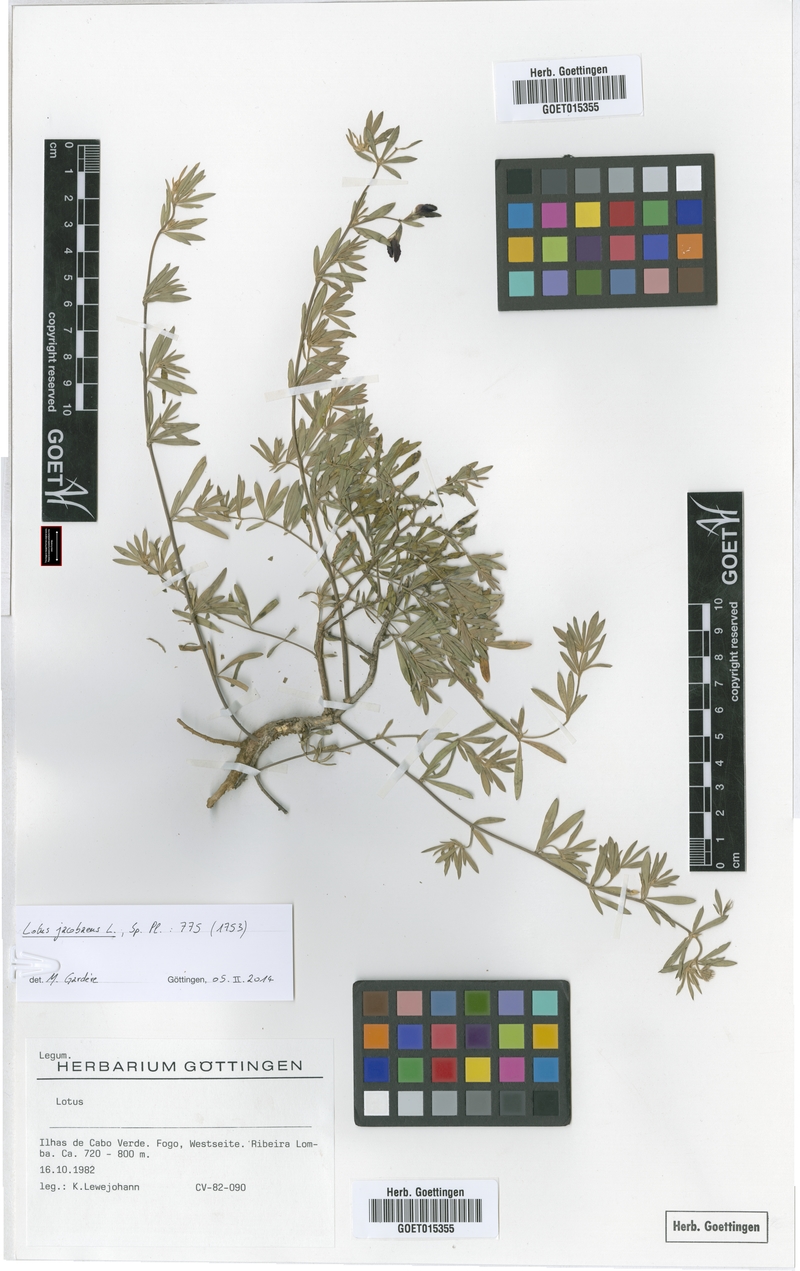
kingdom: Plantae
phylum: Tracheophyta
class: Magnoliopsida
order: Fabales
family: Fabaceae
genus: Lotus
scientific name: Lotus jacobaeus
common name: St. james's trefoil
